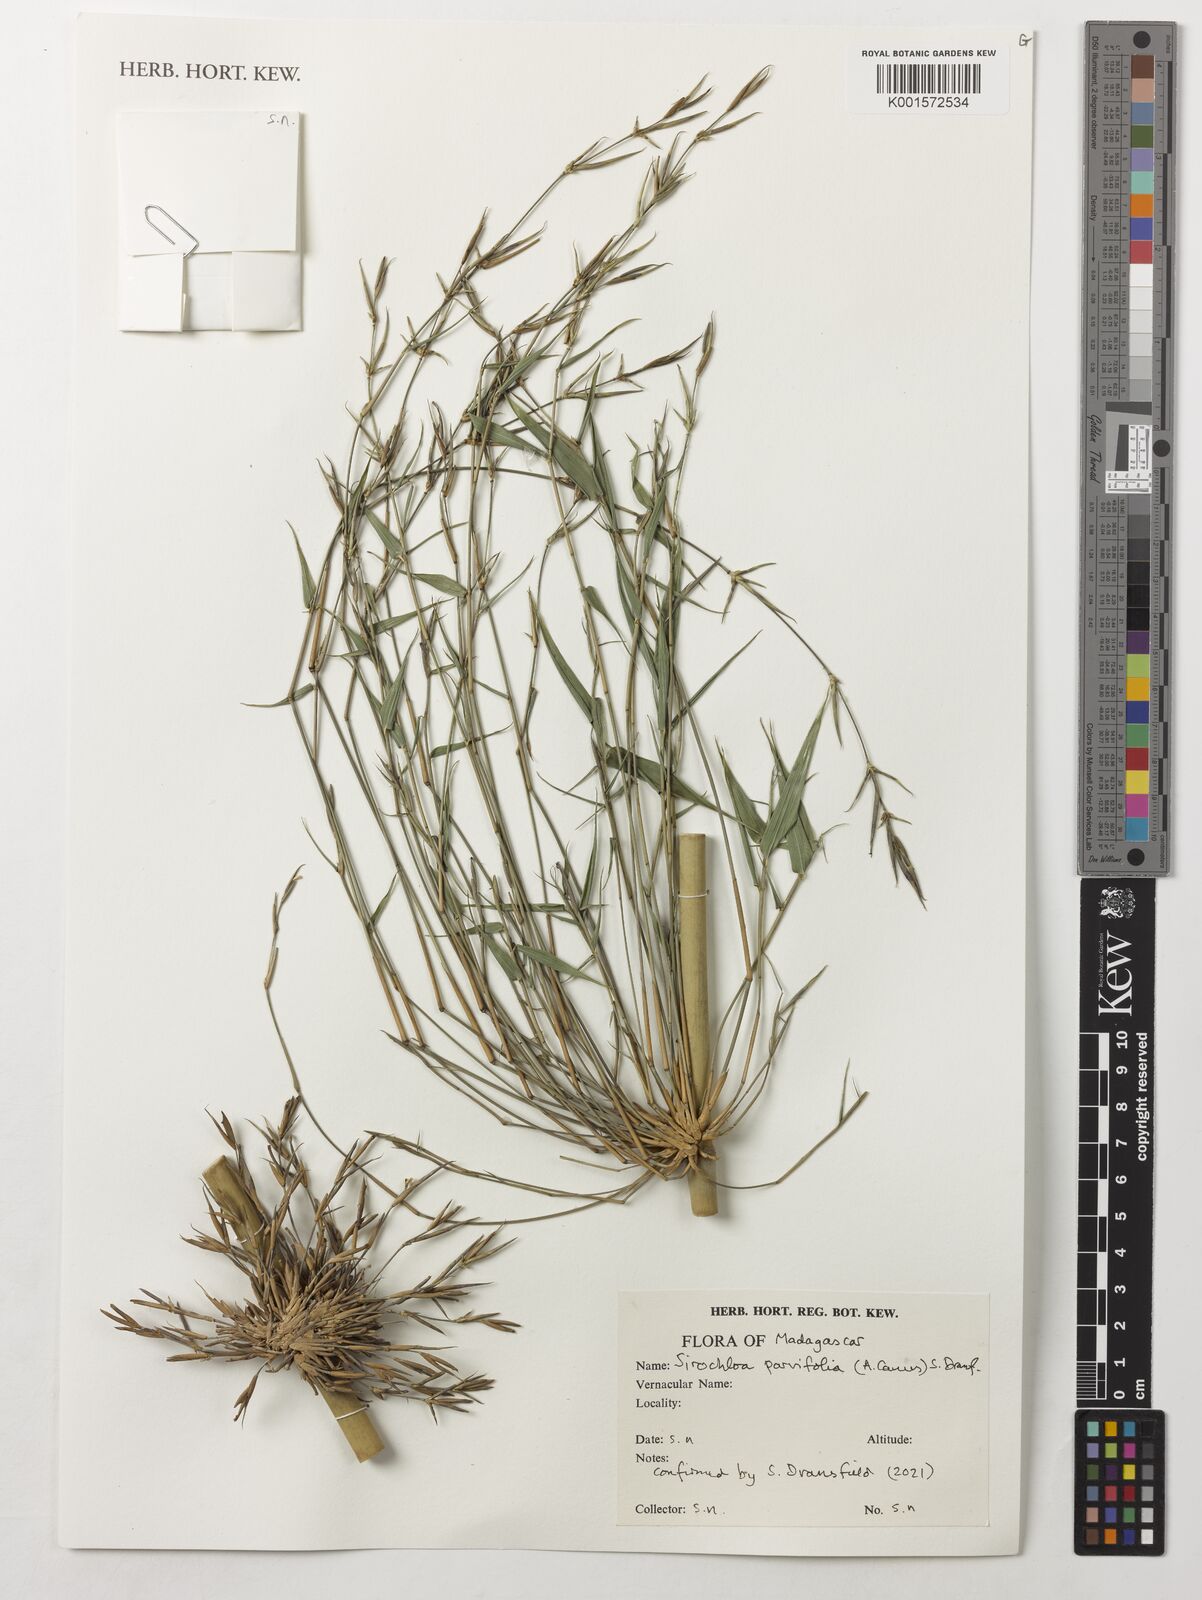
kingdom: Plantae
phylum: Tracheophyta
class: Liliopsida
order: Poales
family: Poaceae
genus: Sirochloa
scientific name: Sirochloa parvifolia
